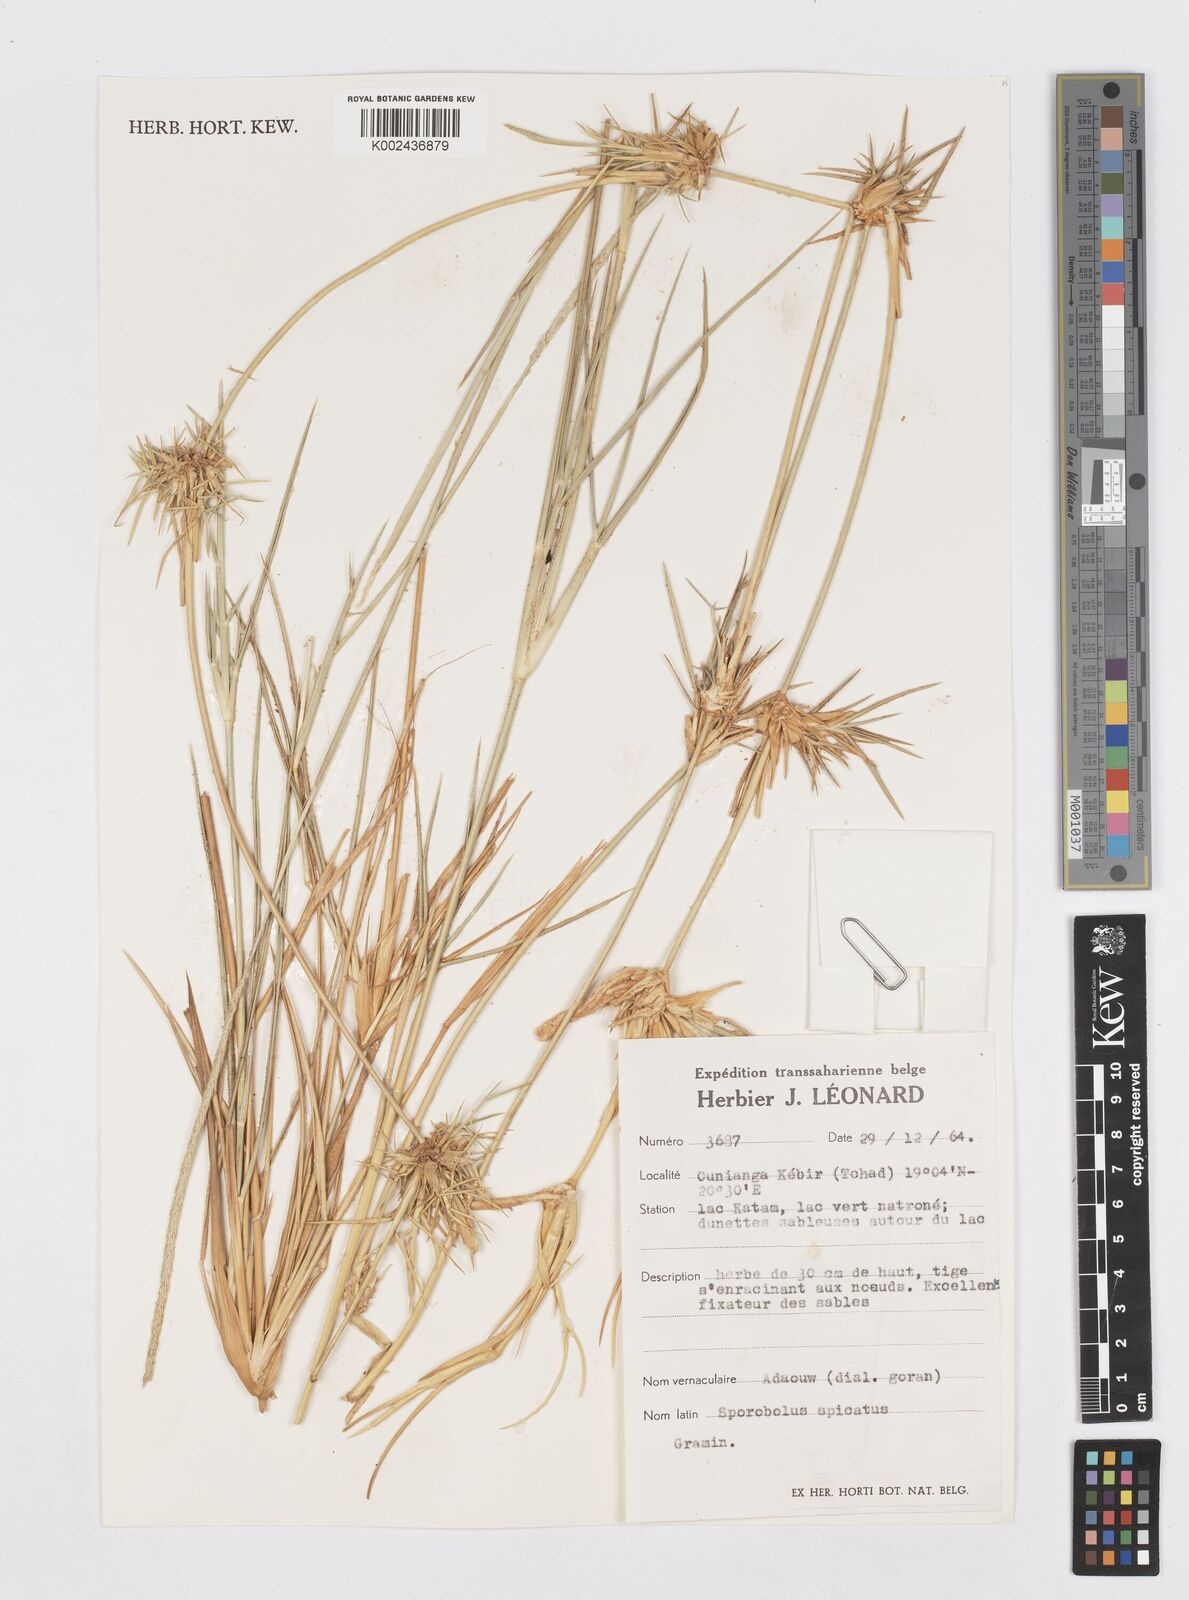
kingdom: Plantae
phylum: Tracheophyta
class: Liliopsida
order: Poales
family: Poaceae
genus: Sporobolus
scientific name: Sporobolus spicatus
